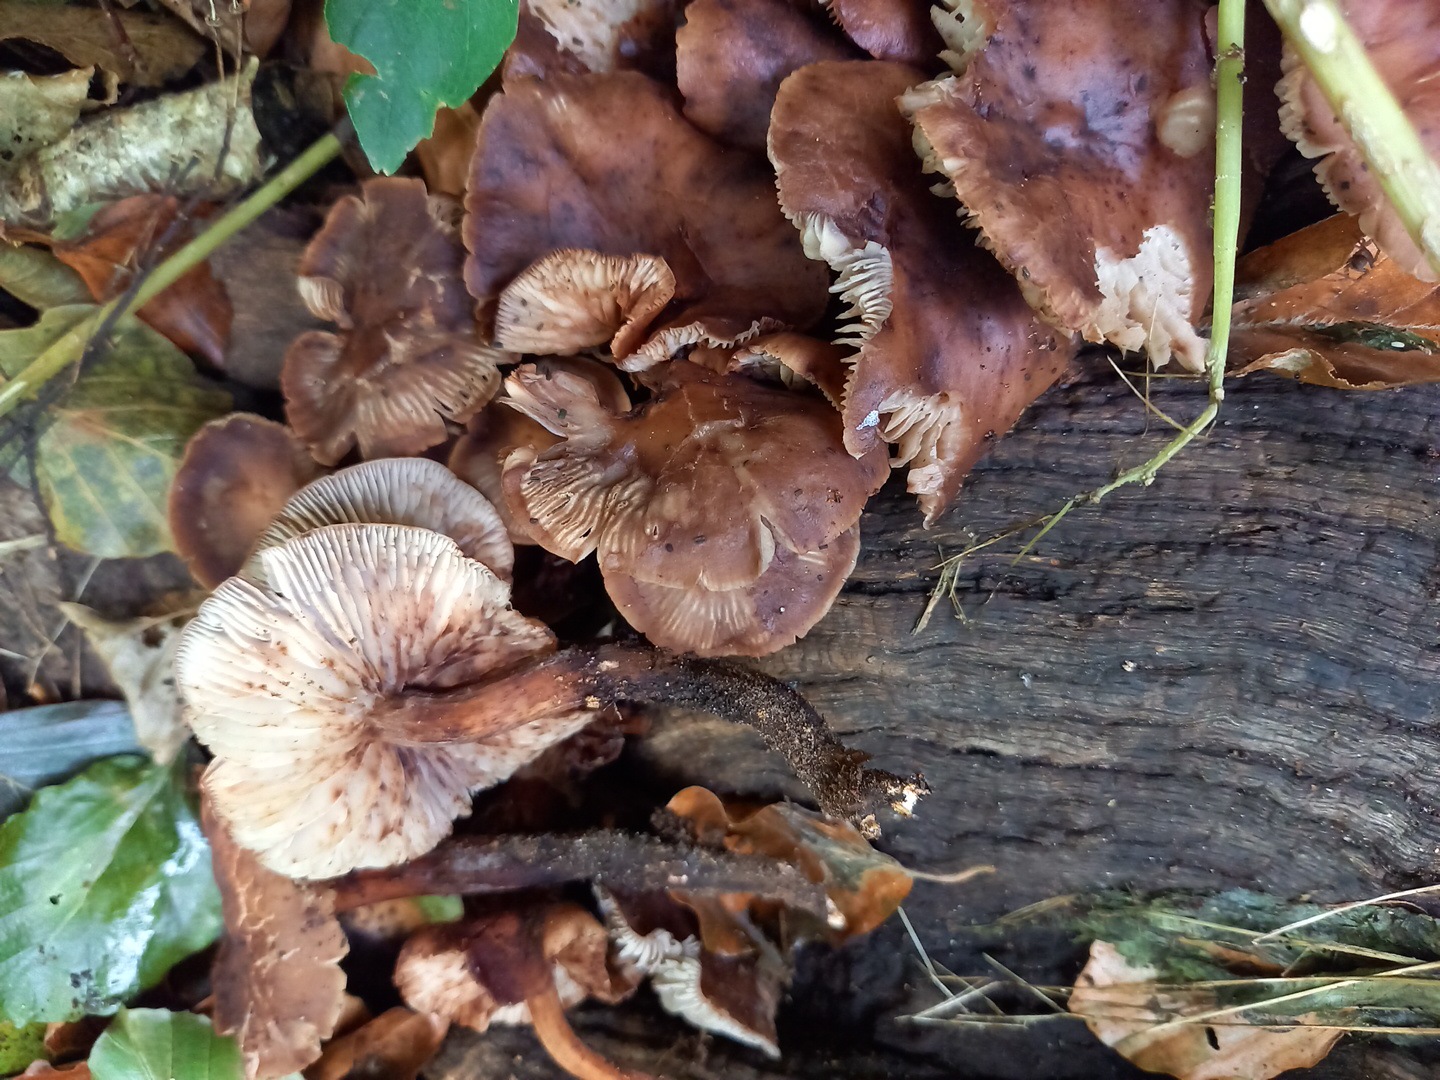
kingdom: Fungi
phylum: Basidiomycota
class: Agaricomycetes
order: Agaricales
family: Omphalotaceae
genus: Gymnopus
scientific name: Gymnopus fusipes
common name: tenstokket fladhat
